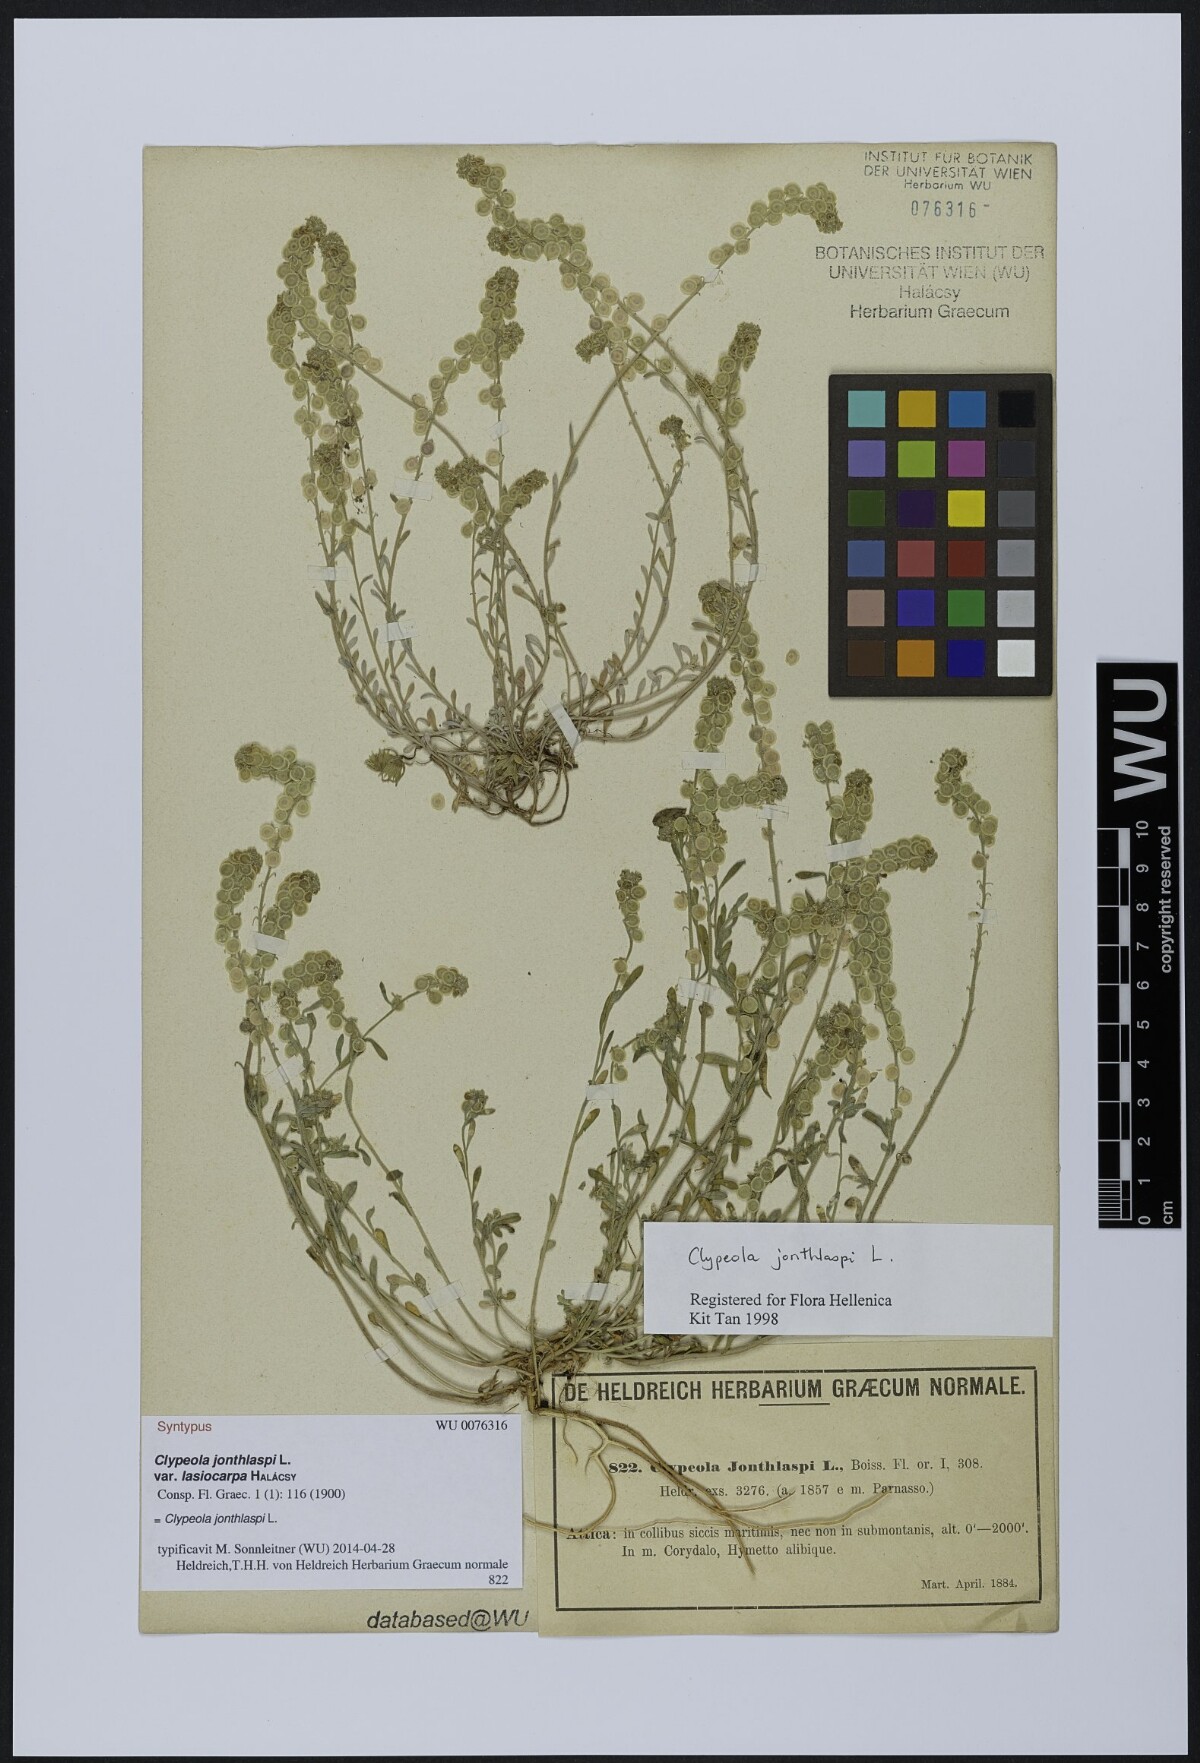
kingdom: Plantae
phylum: Tracheophyta
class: Magnoliopsida
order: Brassicales
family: Brassicaceae
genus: Clypeola
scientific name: Clypeola jonthlaspi
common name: Disk cress
